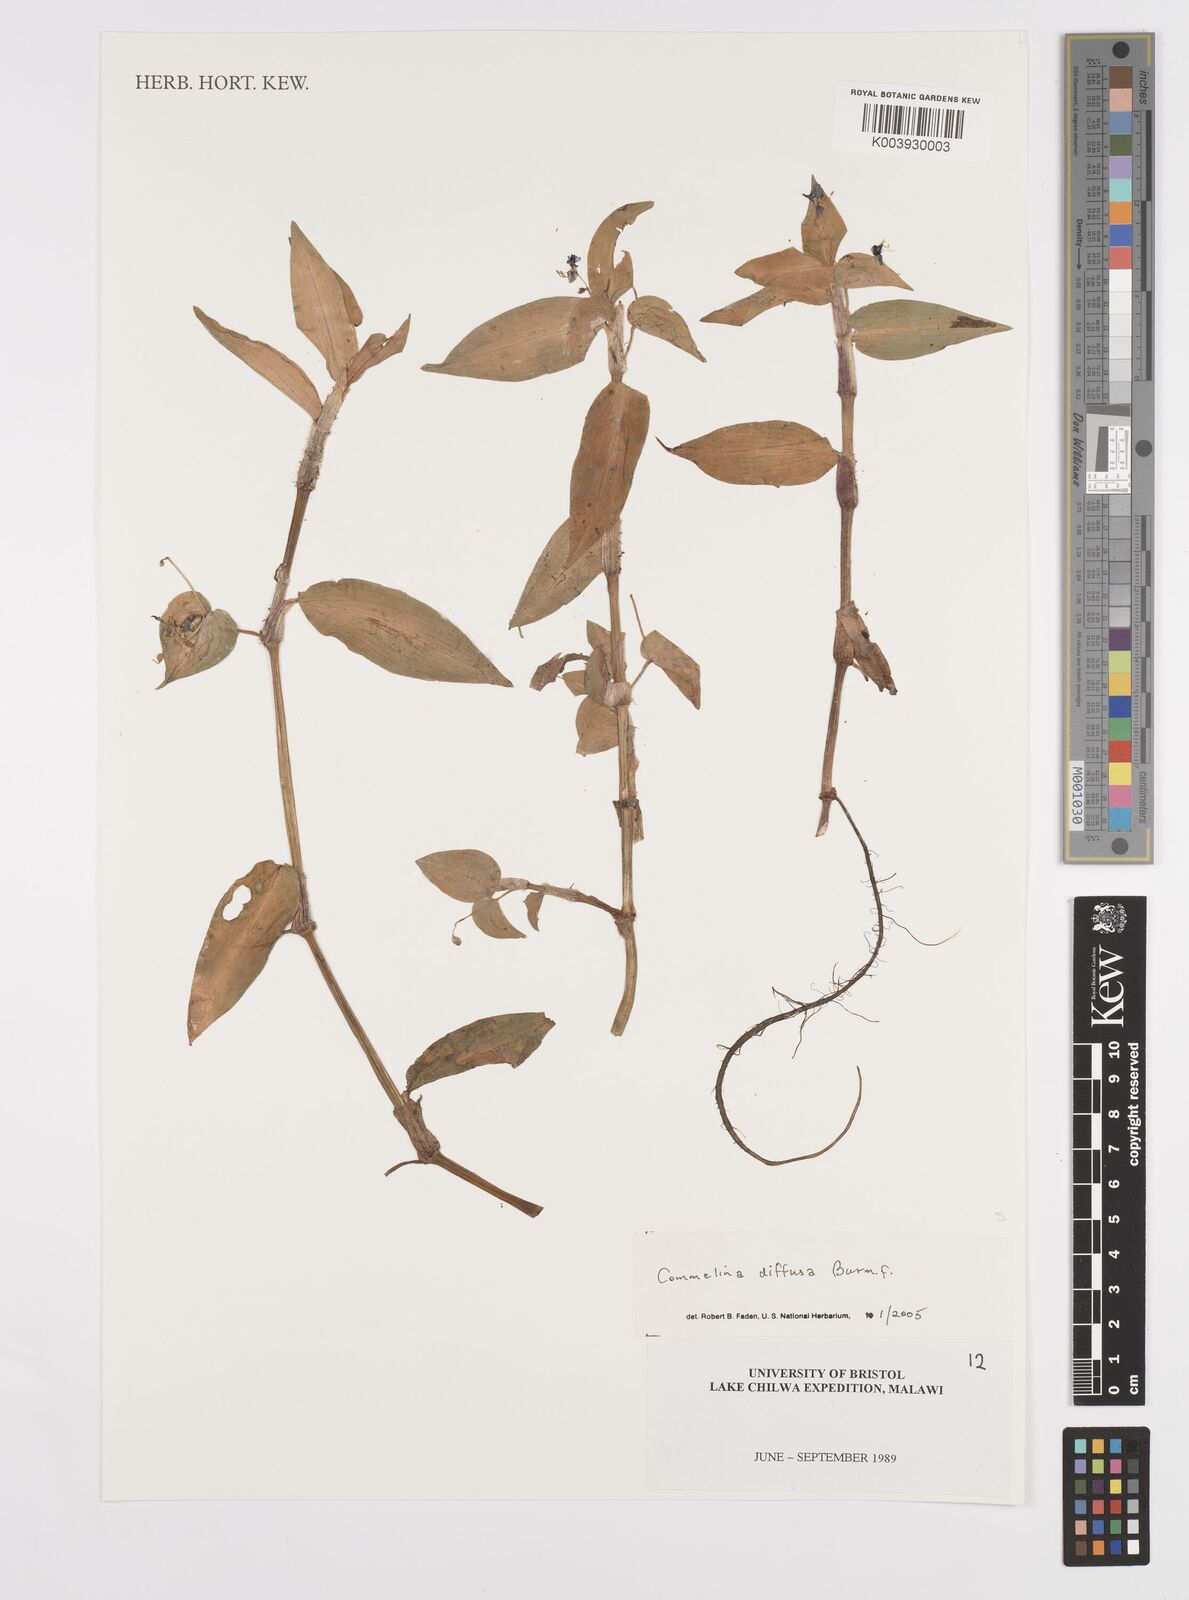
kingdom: Plantae
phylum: Tracheophyta
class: Liliopsida
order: Commelinales
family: Commelinaceae
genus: Commelina
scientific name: Commelina diffusa
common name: Climbing dayflower
